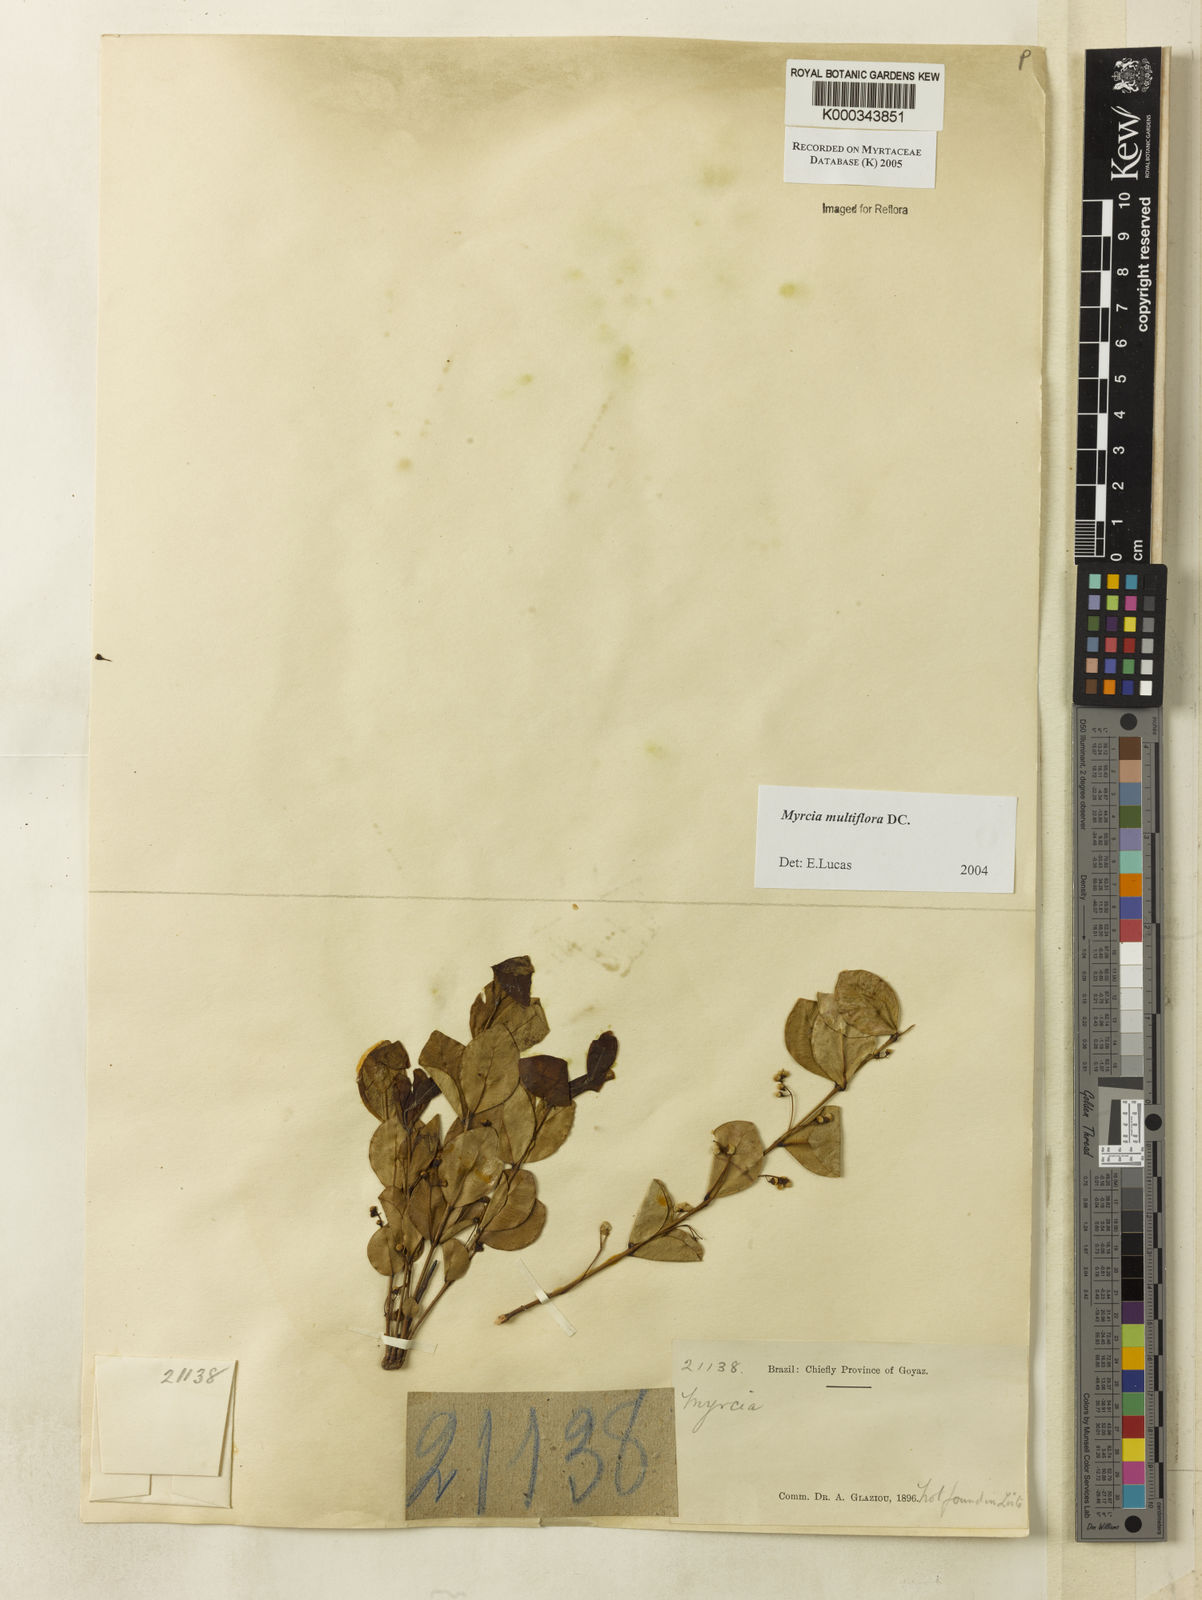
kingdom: Plantae
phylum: Tracheophyta
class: Magnoliopsida
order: Myrtales
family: Myrtaceae
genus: Myrcia
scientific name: Myrcia multiflora
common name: Pedra hume
